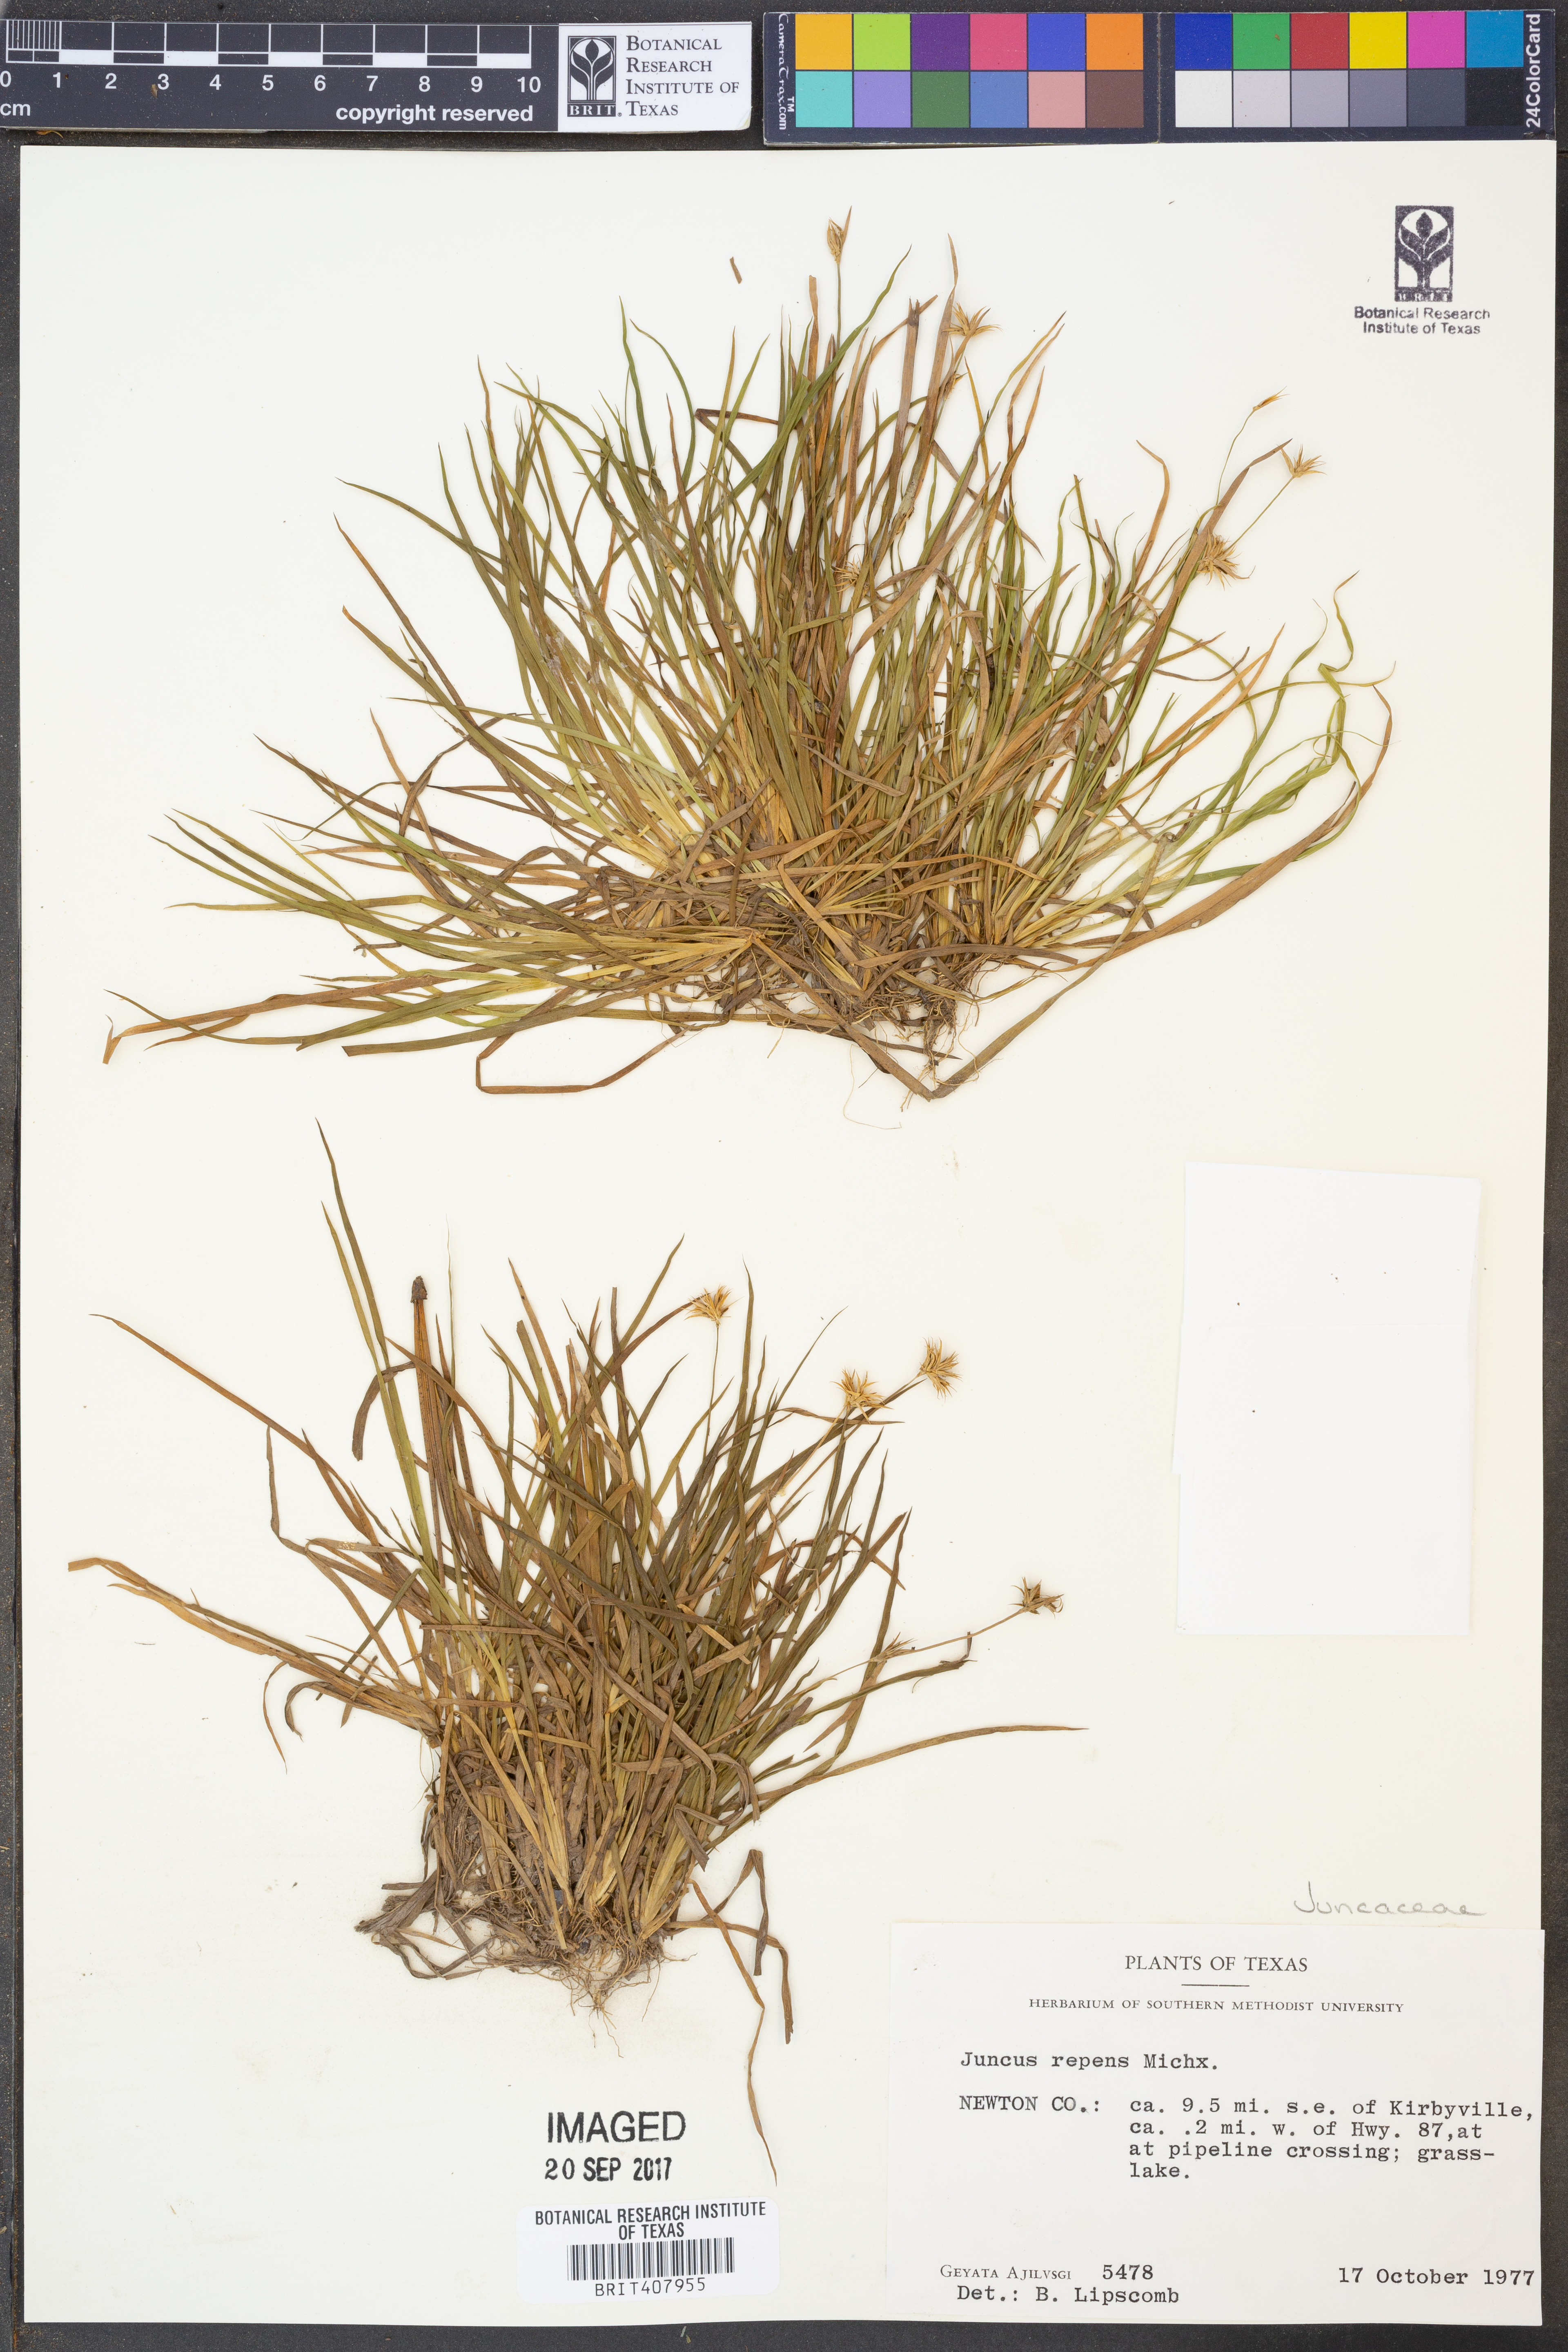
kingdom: Plantae
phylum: Tracheophyta
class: Liliopsida
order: Poales
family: Juncaceae
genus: Juncus
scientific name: Juncus repens
